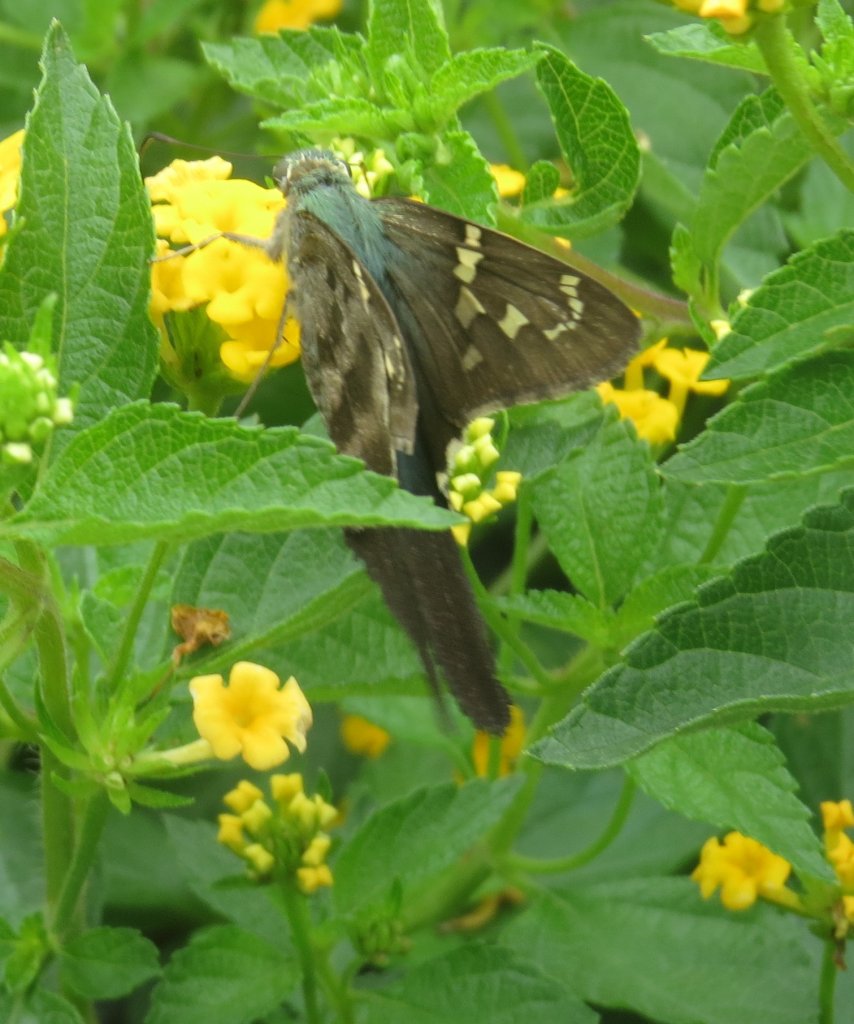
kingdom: Animalia
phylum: Arthropoda
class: Insecta
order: Lepidoptera
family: Hesperiidae
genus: Urbanus
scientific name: Urbanus proteus
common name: Long-tailed Skipper
